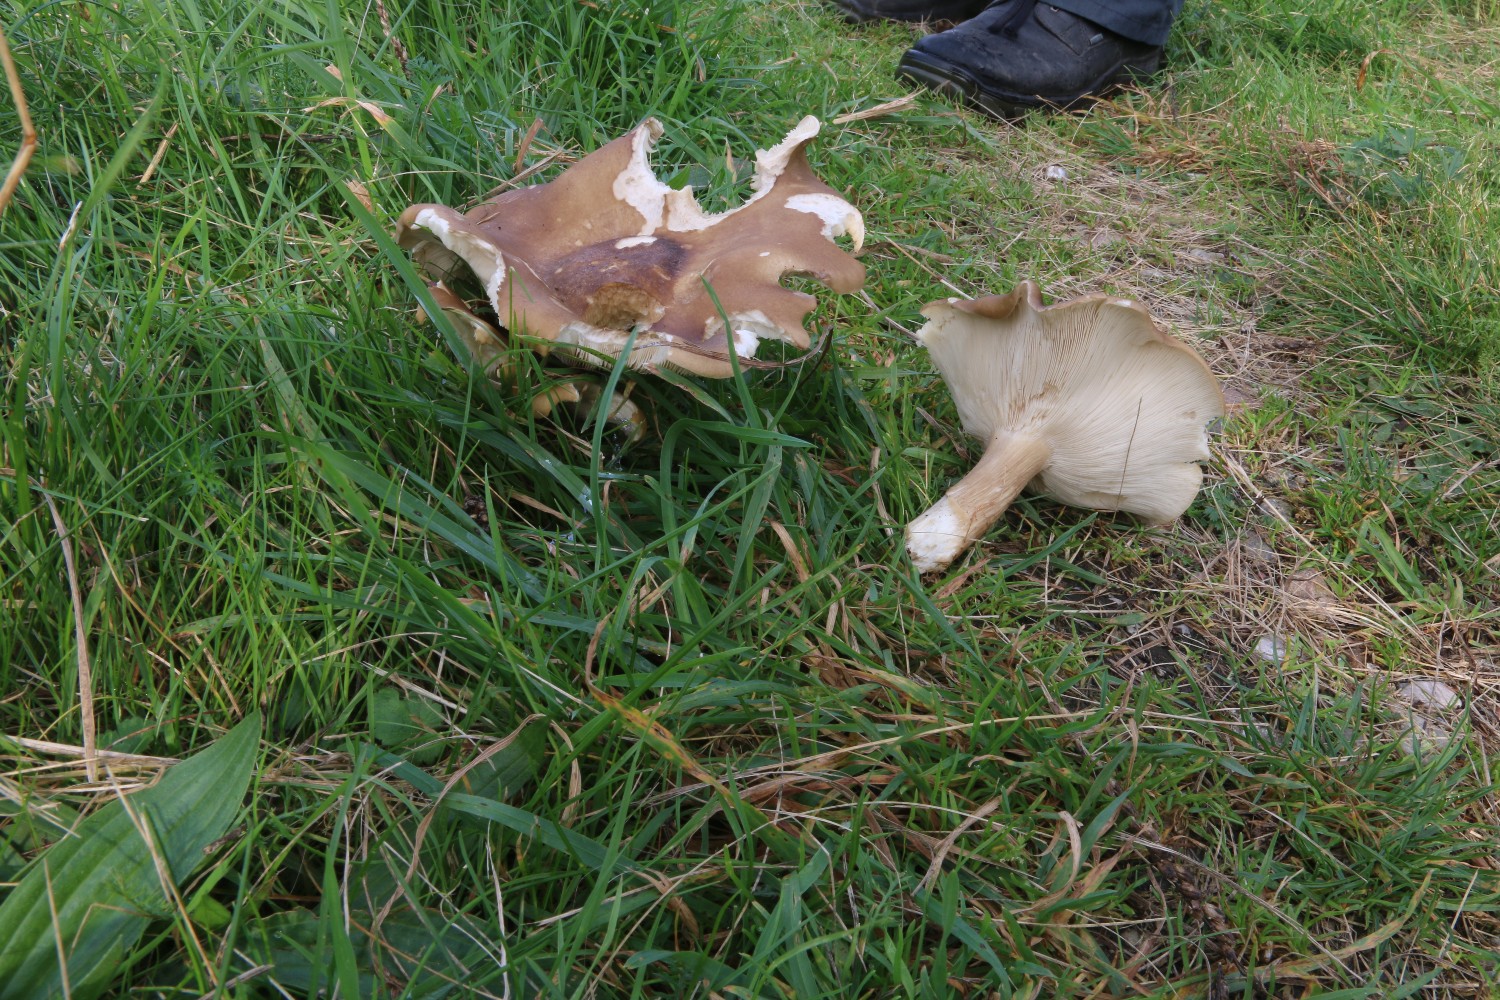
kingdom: Fungi
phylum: Basidiomycota
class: Agaricomycetes
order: Agaricales
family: Tricholomataceae
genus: Melanoleuca
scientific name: Melanoleuca grammopodia
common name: stribestokket munkehat
